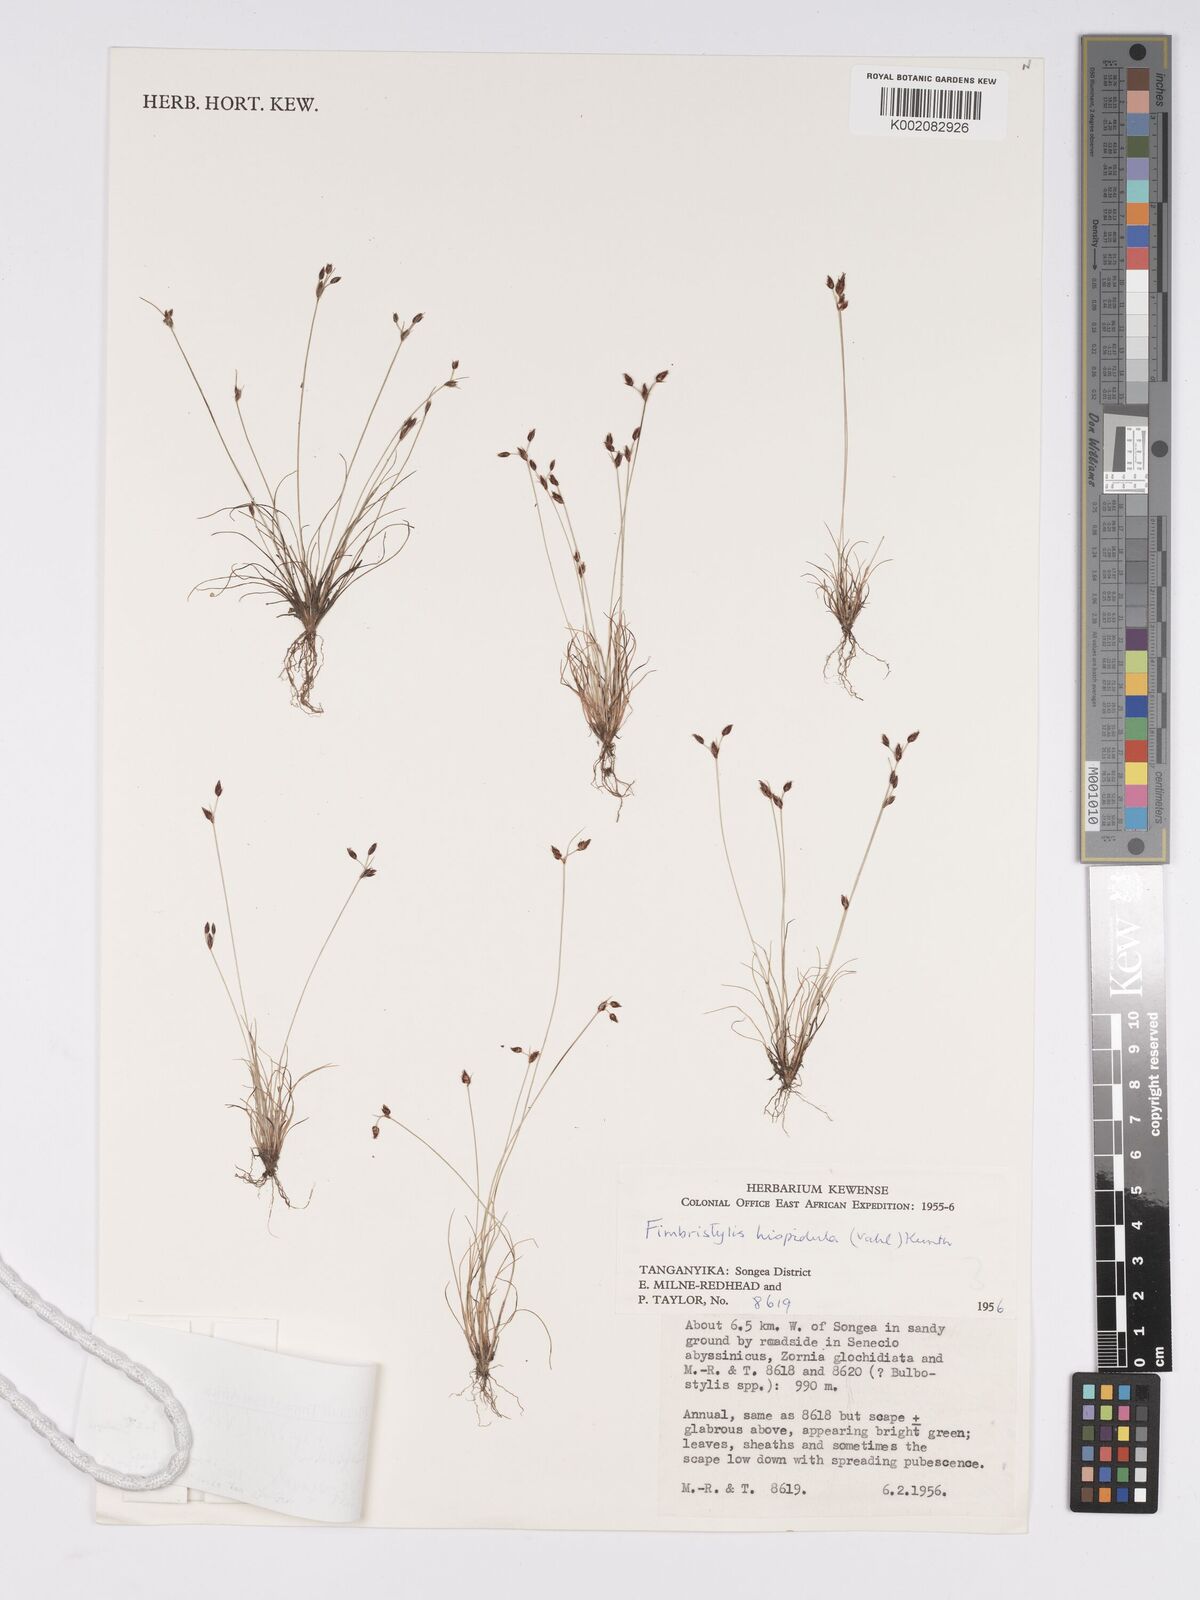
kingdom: Plantae
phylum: Tracheophyta
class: Liliopsida
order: Poales
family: Cyperaceae
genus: Bulbostylis
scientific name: Bulbostylis hispidula
